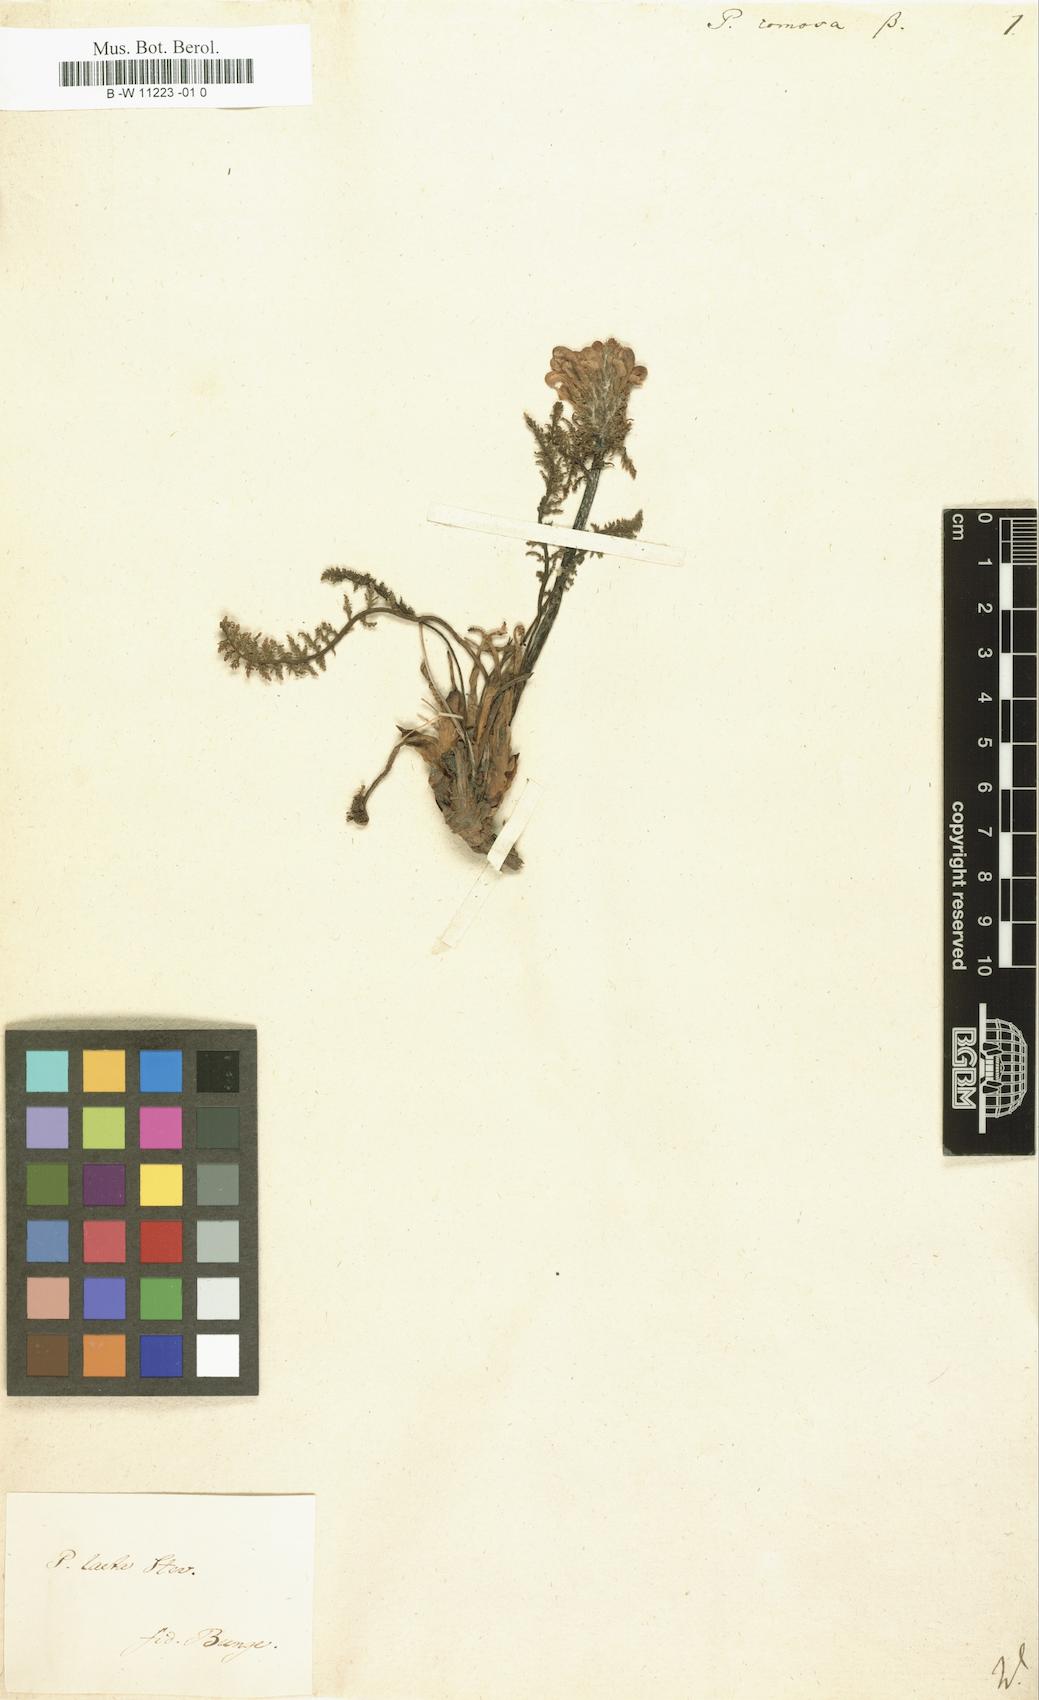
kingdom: Plantae
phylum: Tracheophyta
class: Magnoliopsida
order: Lamiales
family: Orobanchaceae
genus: Pedicularis
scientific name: Pedicularis comosa
